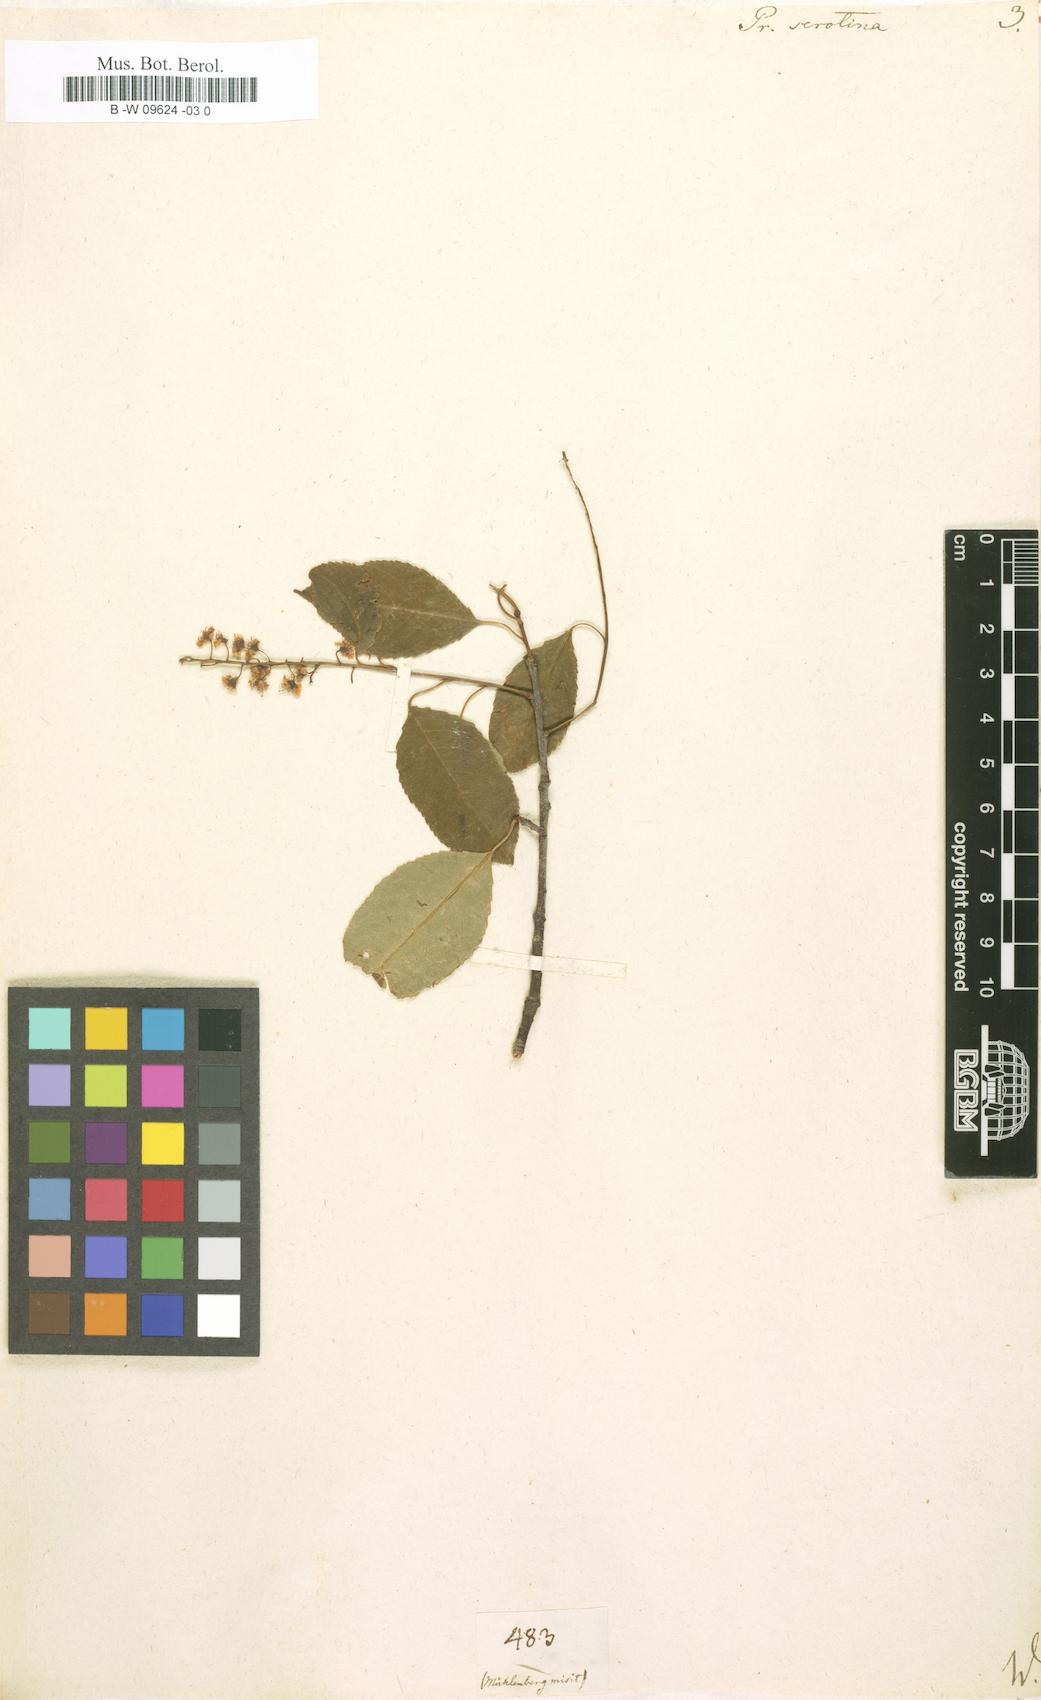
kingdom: Plantae
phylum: Tracheophyta
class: Magnoliopsida
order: Rosales
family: Rosaceae
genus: Prunus
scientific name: Prunus serotina
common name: Black cherry
